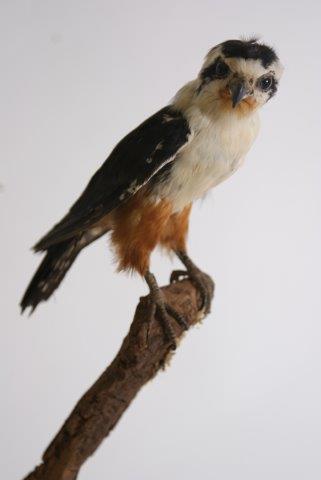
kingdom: Animalia
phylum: Chordata
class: Aves
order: Falconiformes
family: Falconidae
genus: Microhierax
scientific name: Microhierax caerulescens
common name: Collared falconet
